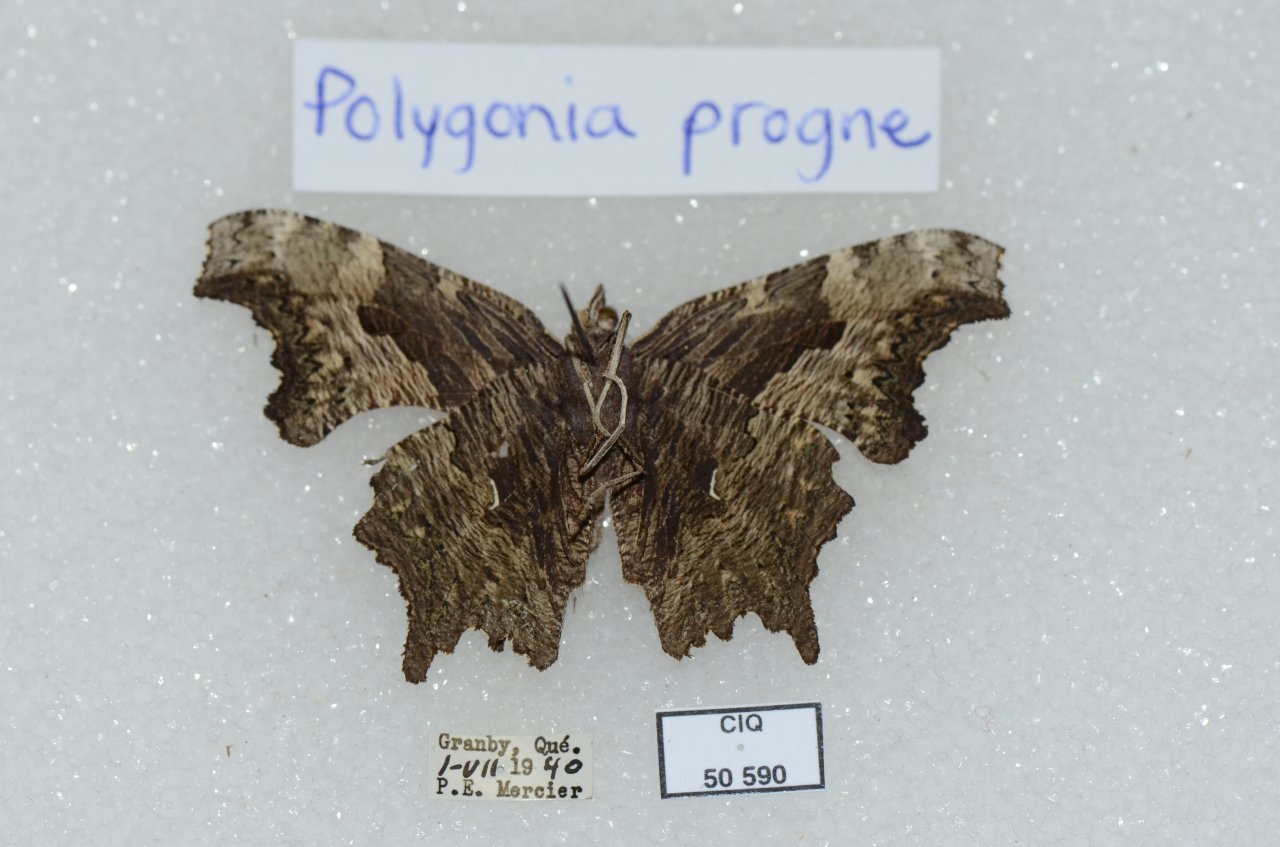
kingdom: Animalia
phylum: Arthropoda
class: Insecta
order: Lepidoptera
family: Nymphalidae
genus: Polygonia
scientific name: Polygonia progne
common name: Gray Comma
